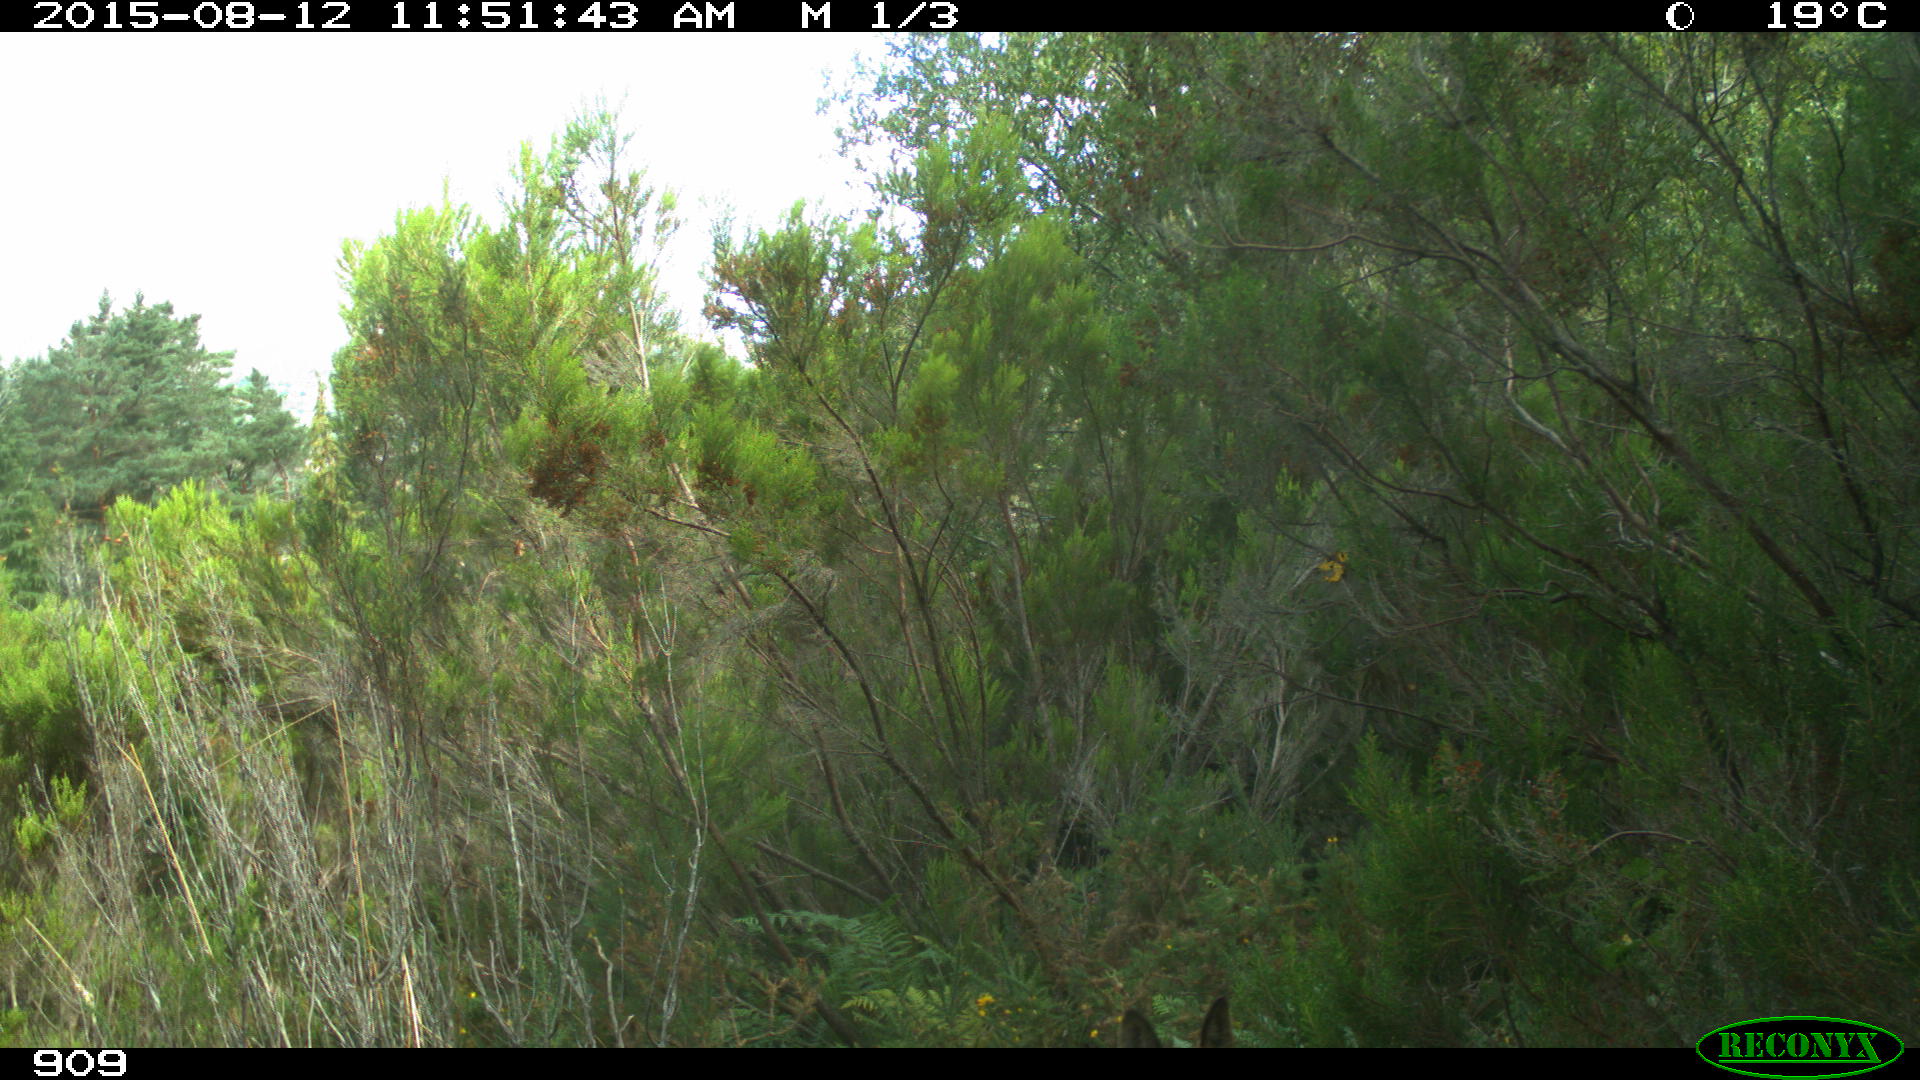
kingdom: Animalia
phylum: Chordata
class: Mammalia
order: Artiodactyla
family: Cervidae
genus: Capreolus
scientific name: Capreolus capreolus
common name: Western roe deer
